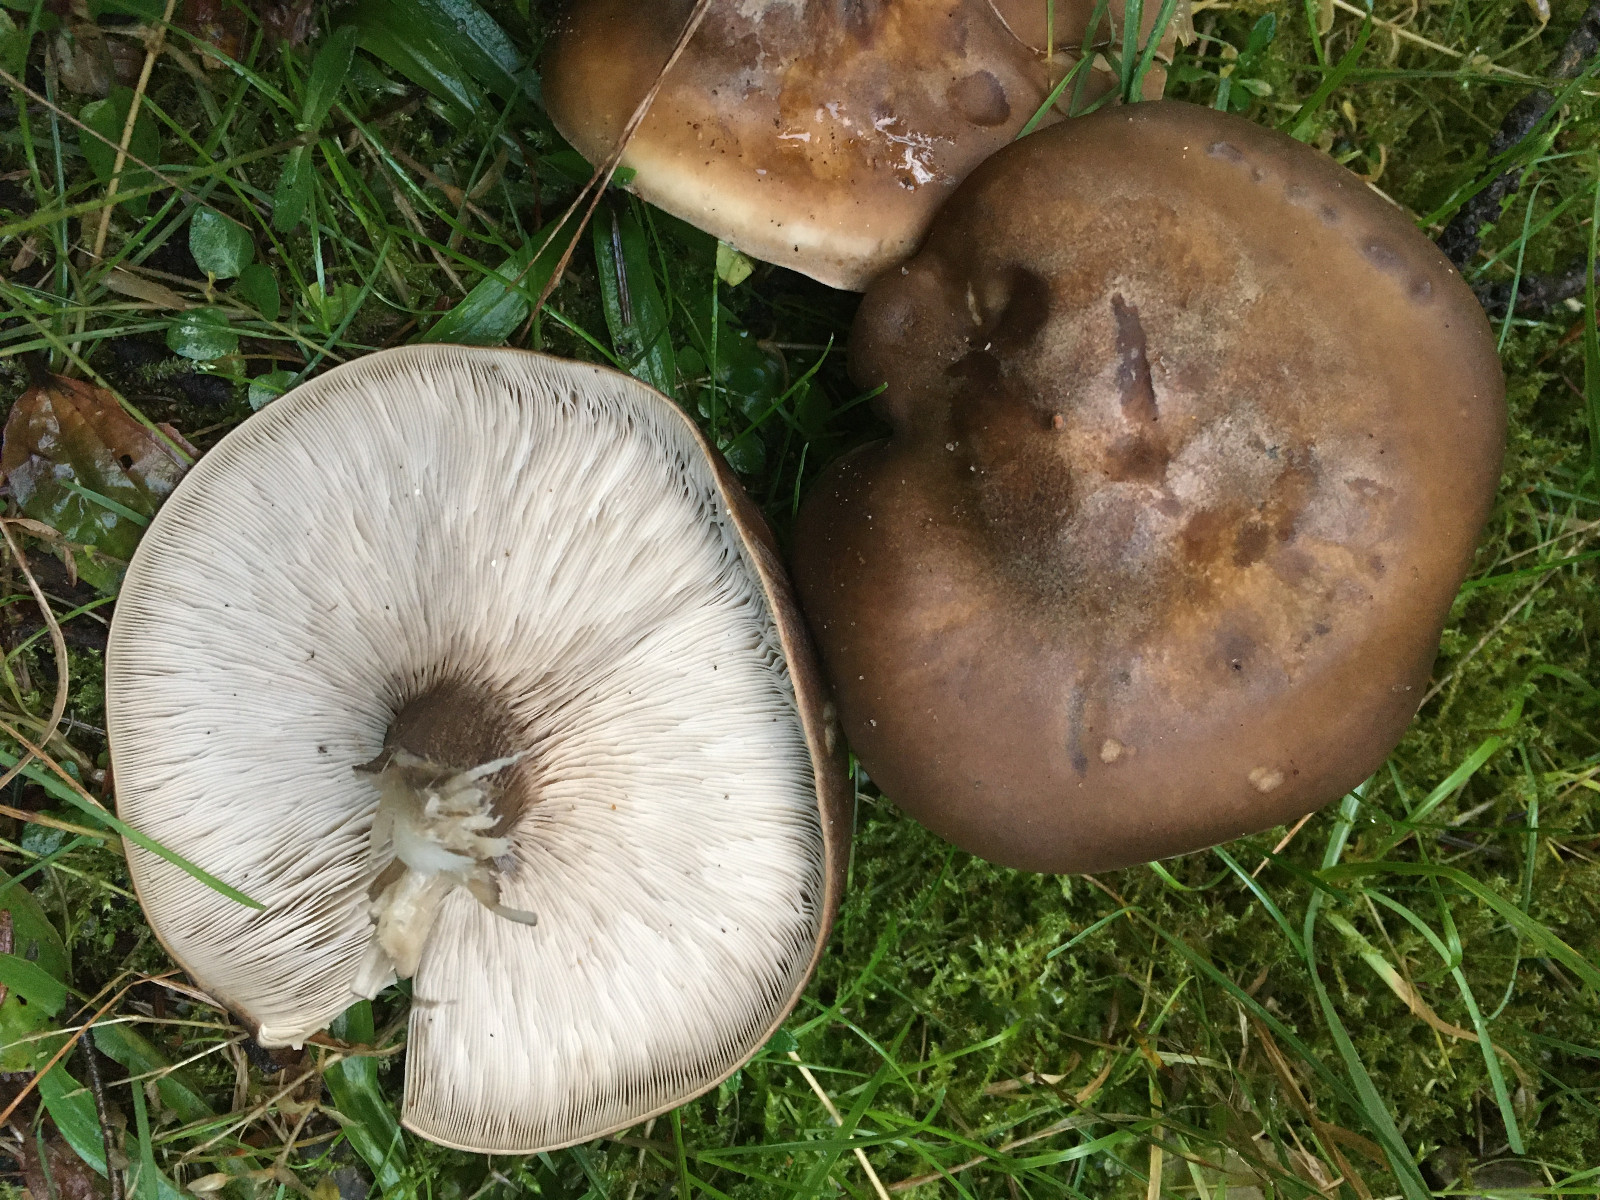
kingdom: Fungi
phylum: Basidiomycota
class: Agaricomycetes
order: Agaricales
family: Tricholomataceae
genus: Melanoleuca
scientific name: Melanoleuca
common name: munkehat
